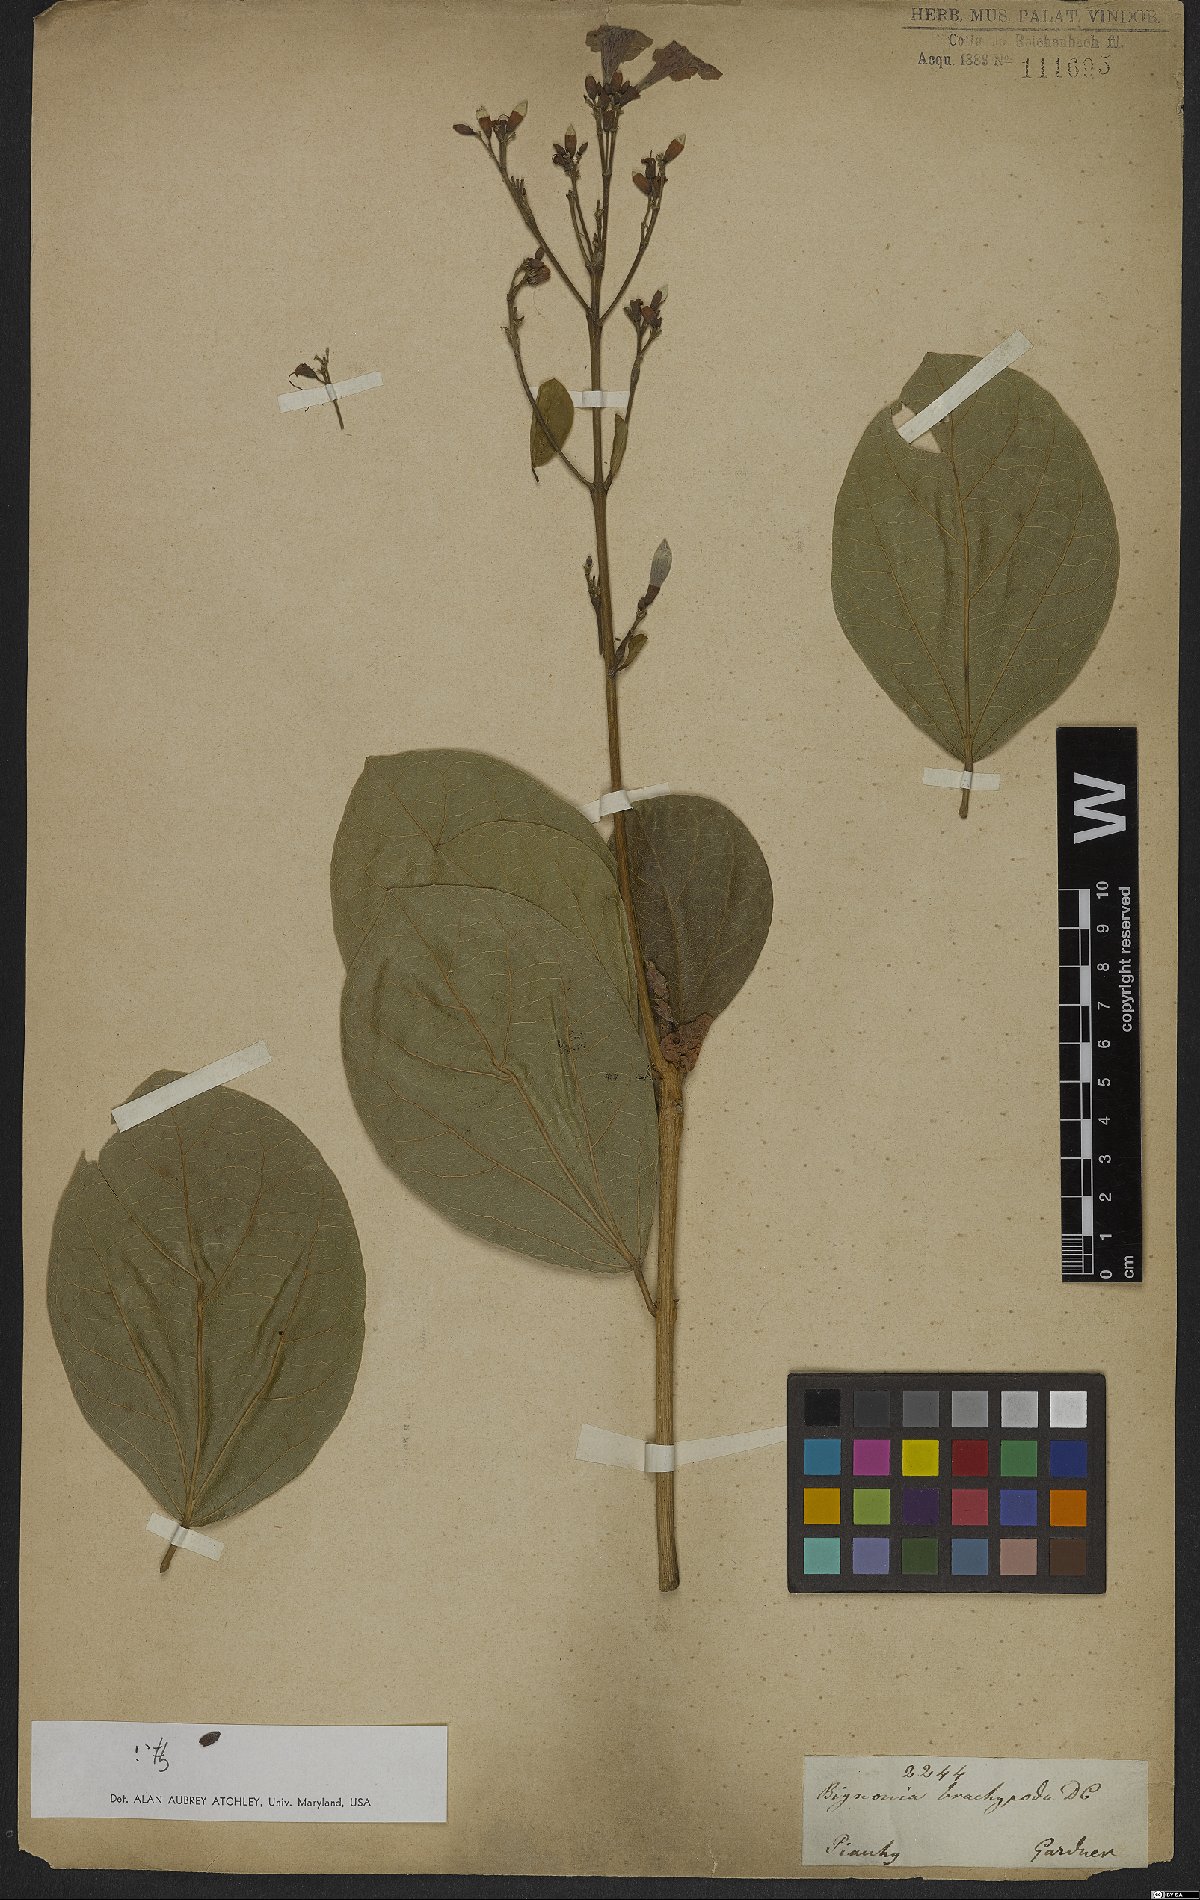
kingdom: Plantae
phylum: Tracheophyta
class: Magnoliopsida
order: Lamiales
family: Bignoniaceae
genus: Fridericia
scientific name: Fridericia platyphylla
